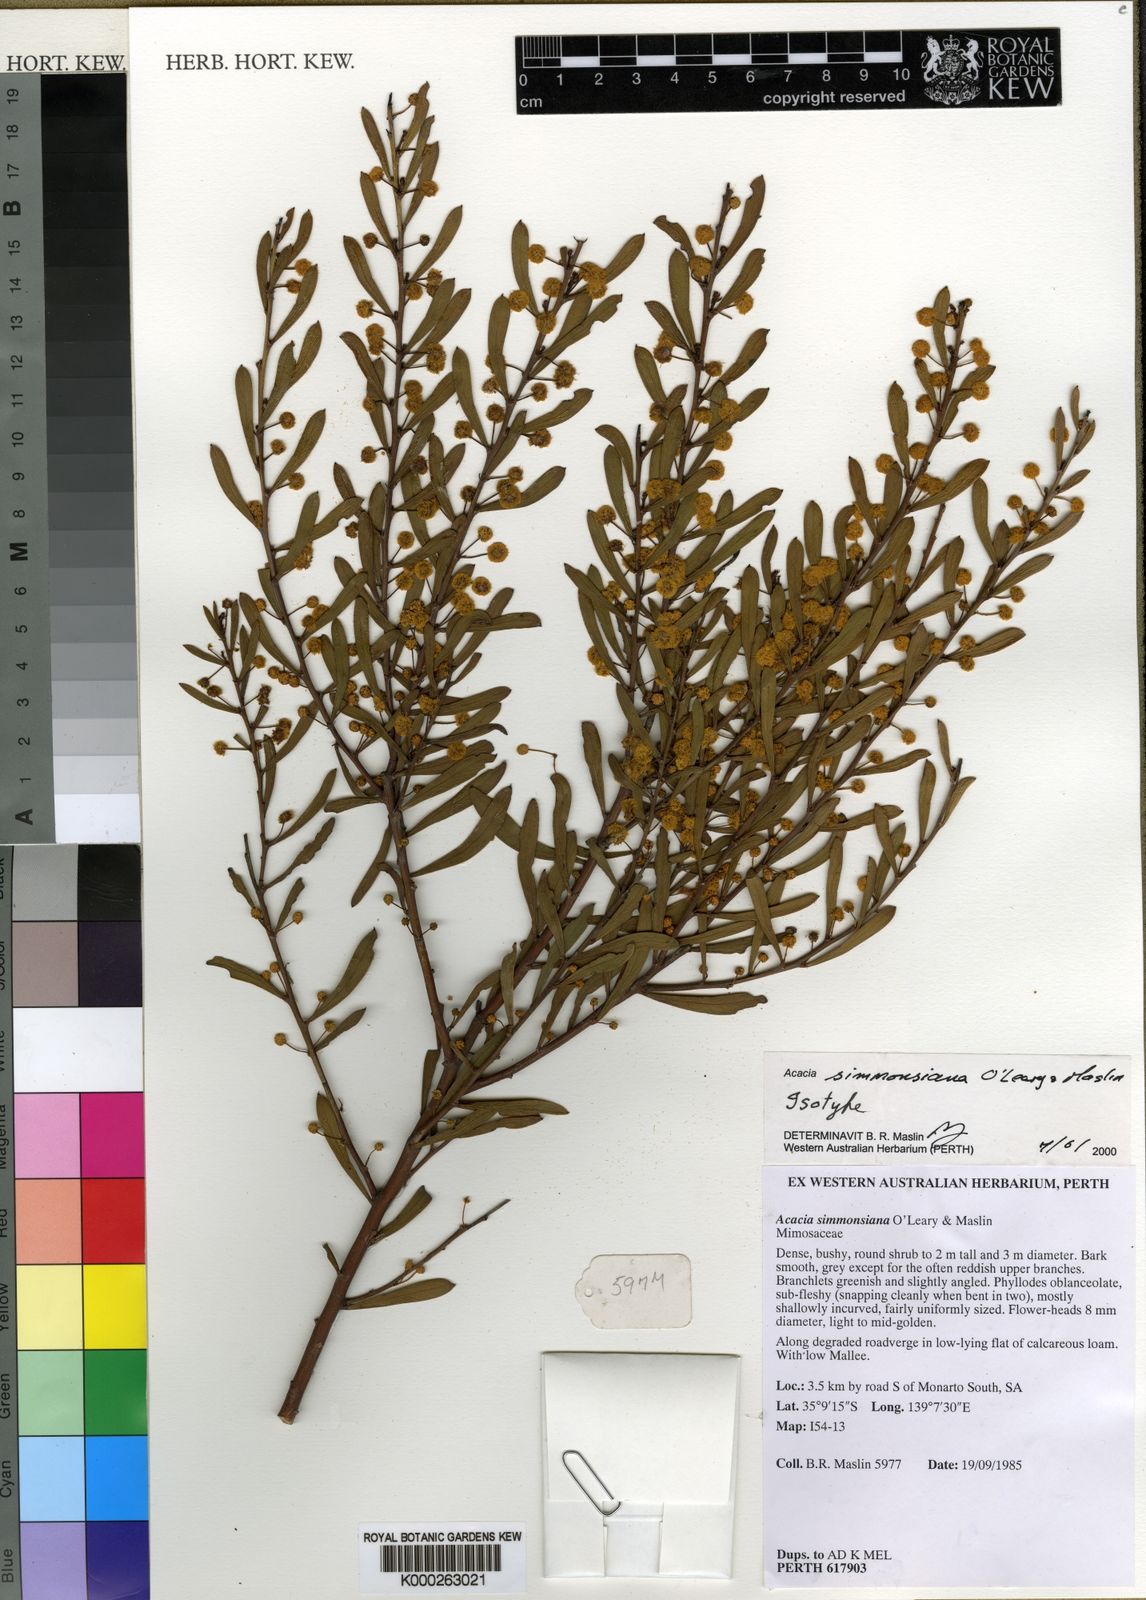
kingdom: Plantae
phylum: Tracheophyta
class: Magnoliopsida
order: Fabales
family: Fabaceae
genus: Acacia
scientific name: Acacia simmonsiana
